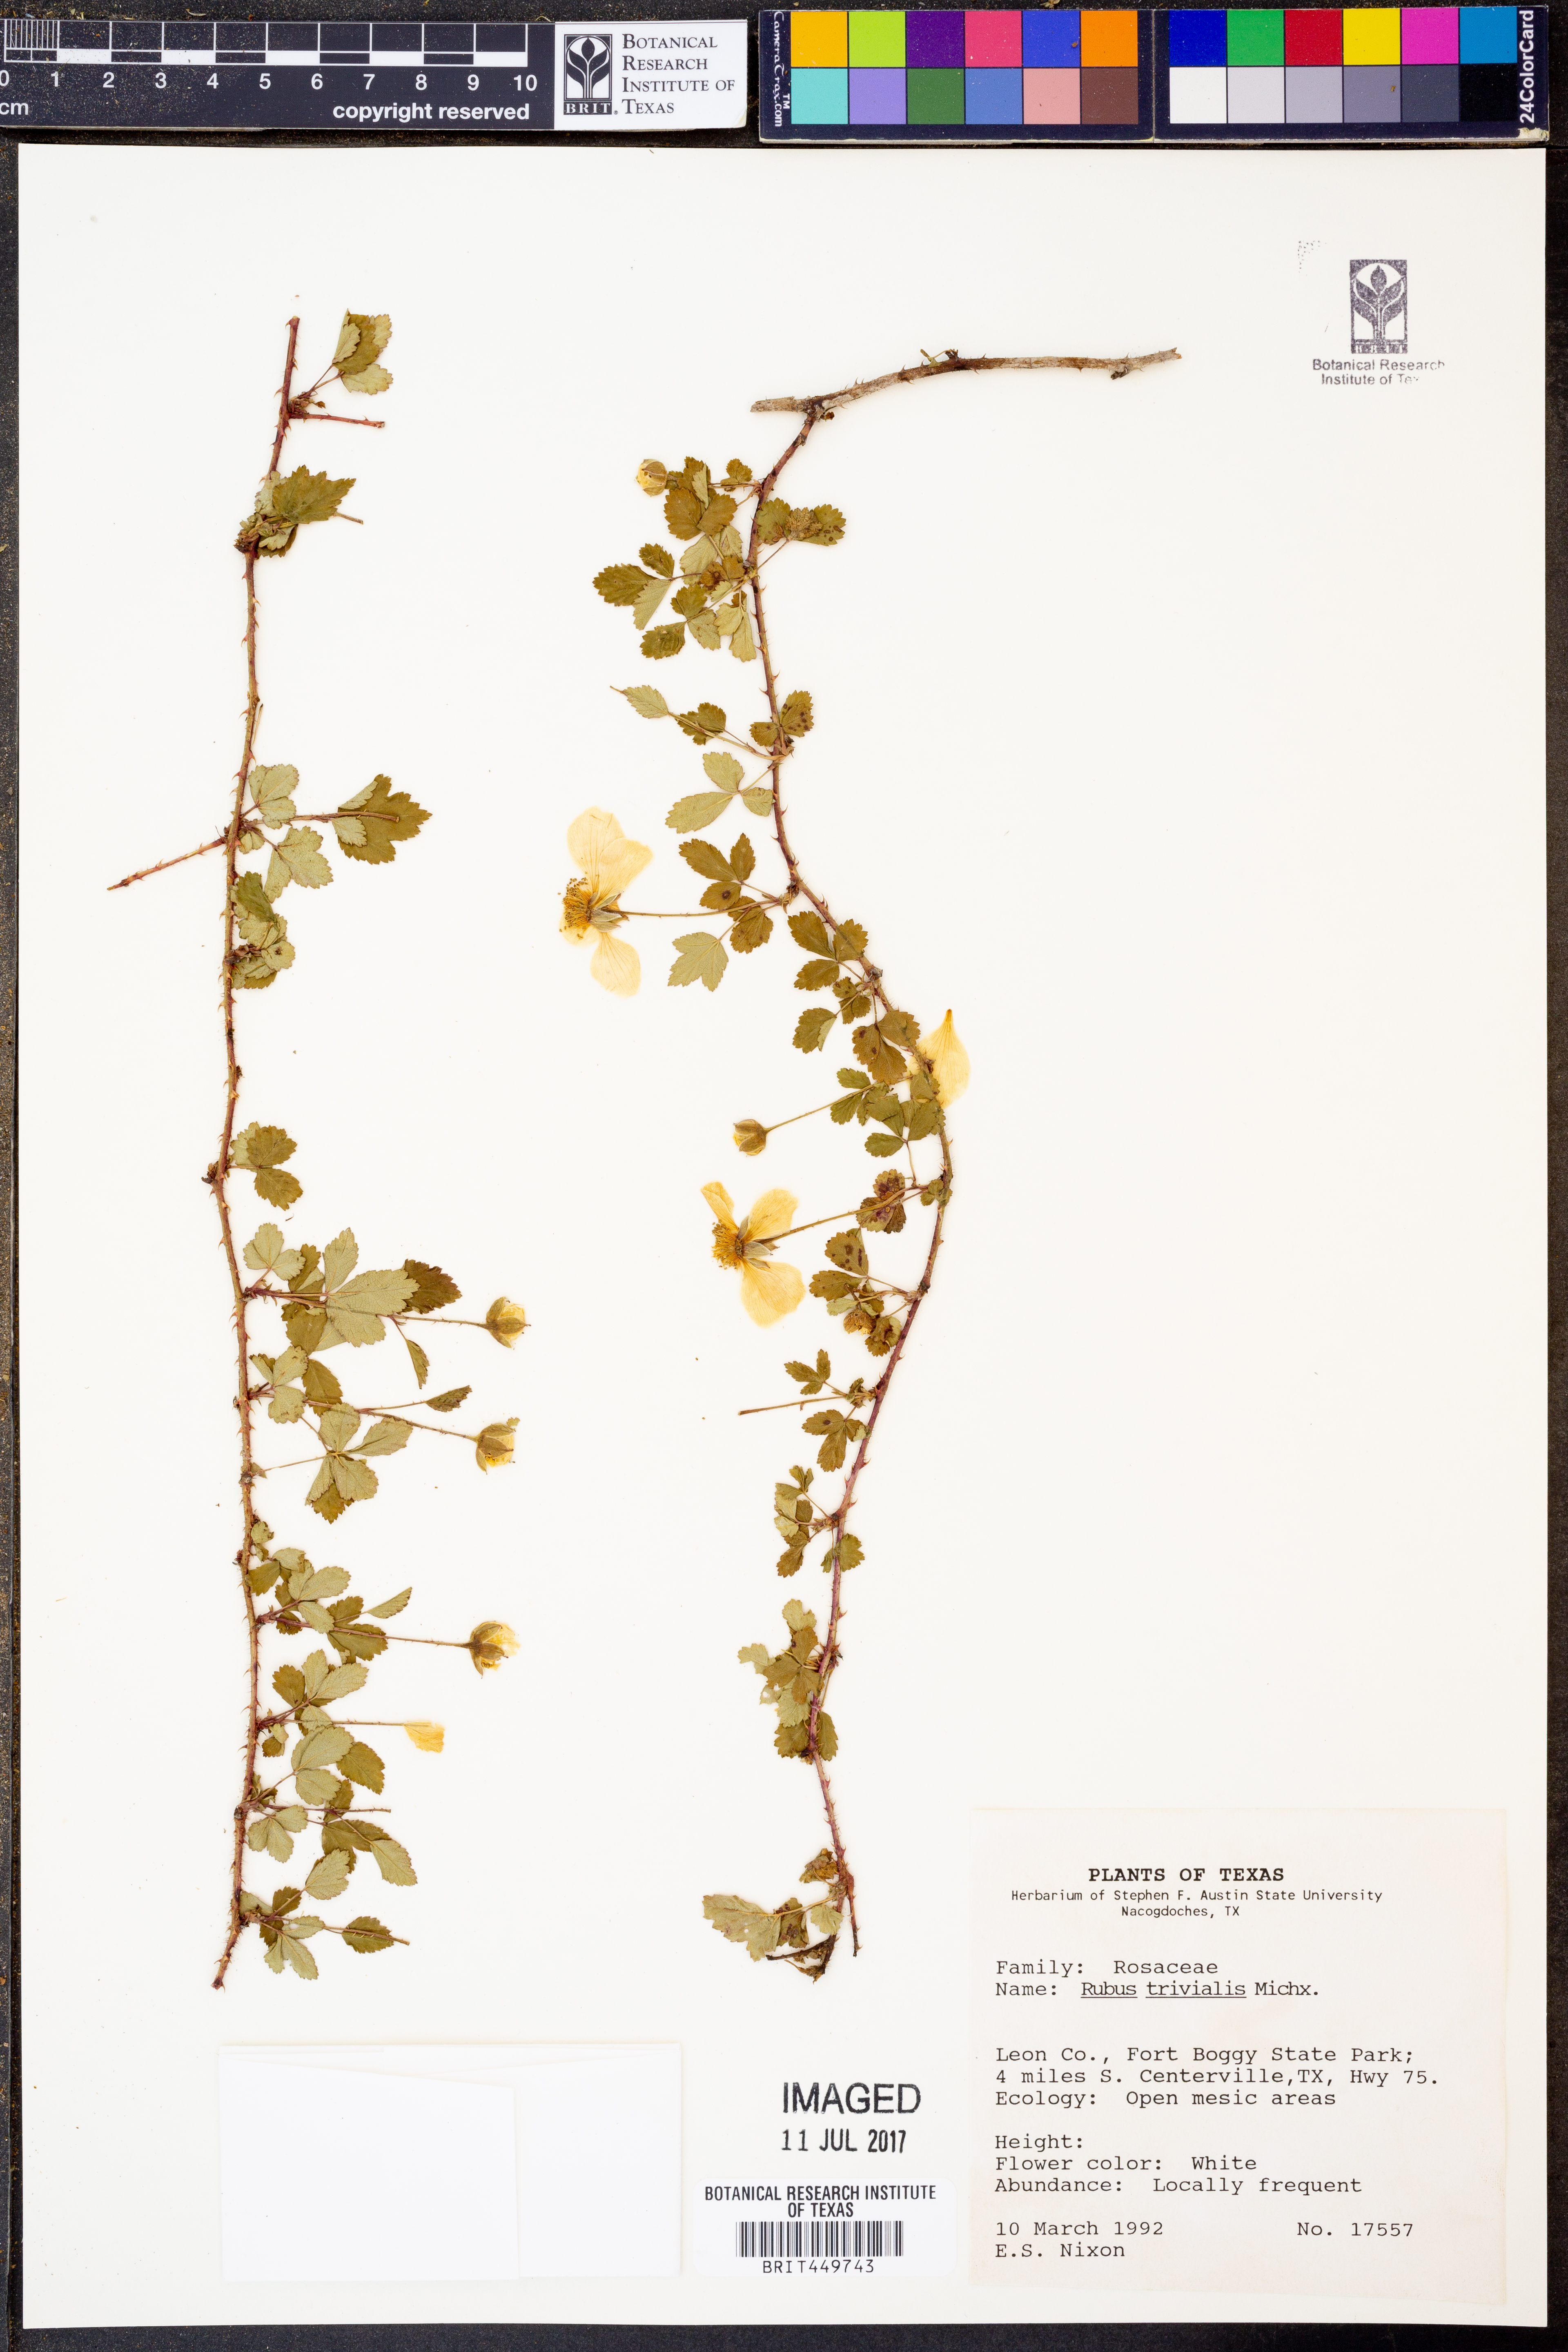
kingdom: Plantae
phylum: Tracheophyta
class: Magnoliopsida
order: Rosales
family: Rosaceae
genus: Rubus
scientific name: Rubus trivialis
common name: Southern dewberry
